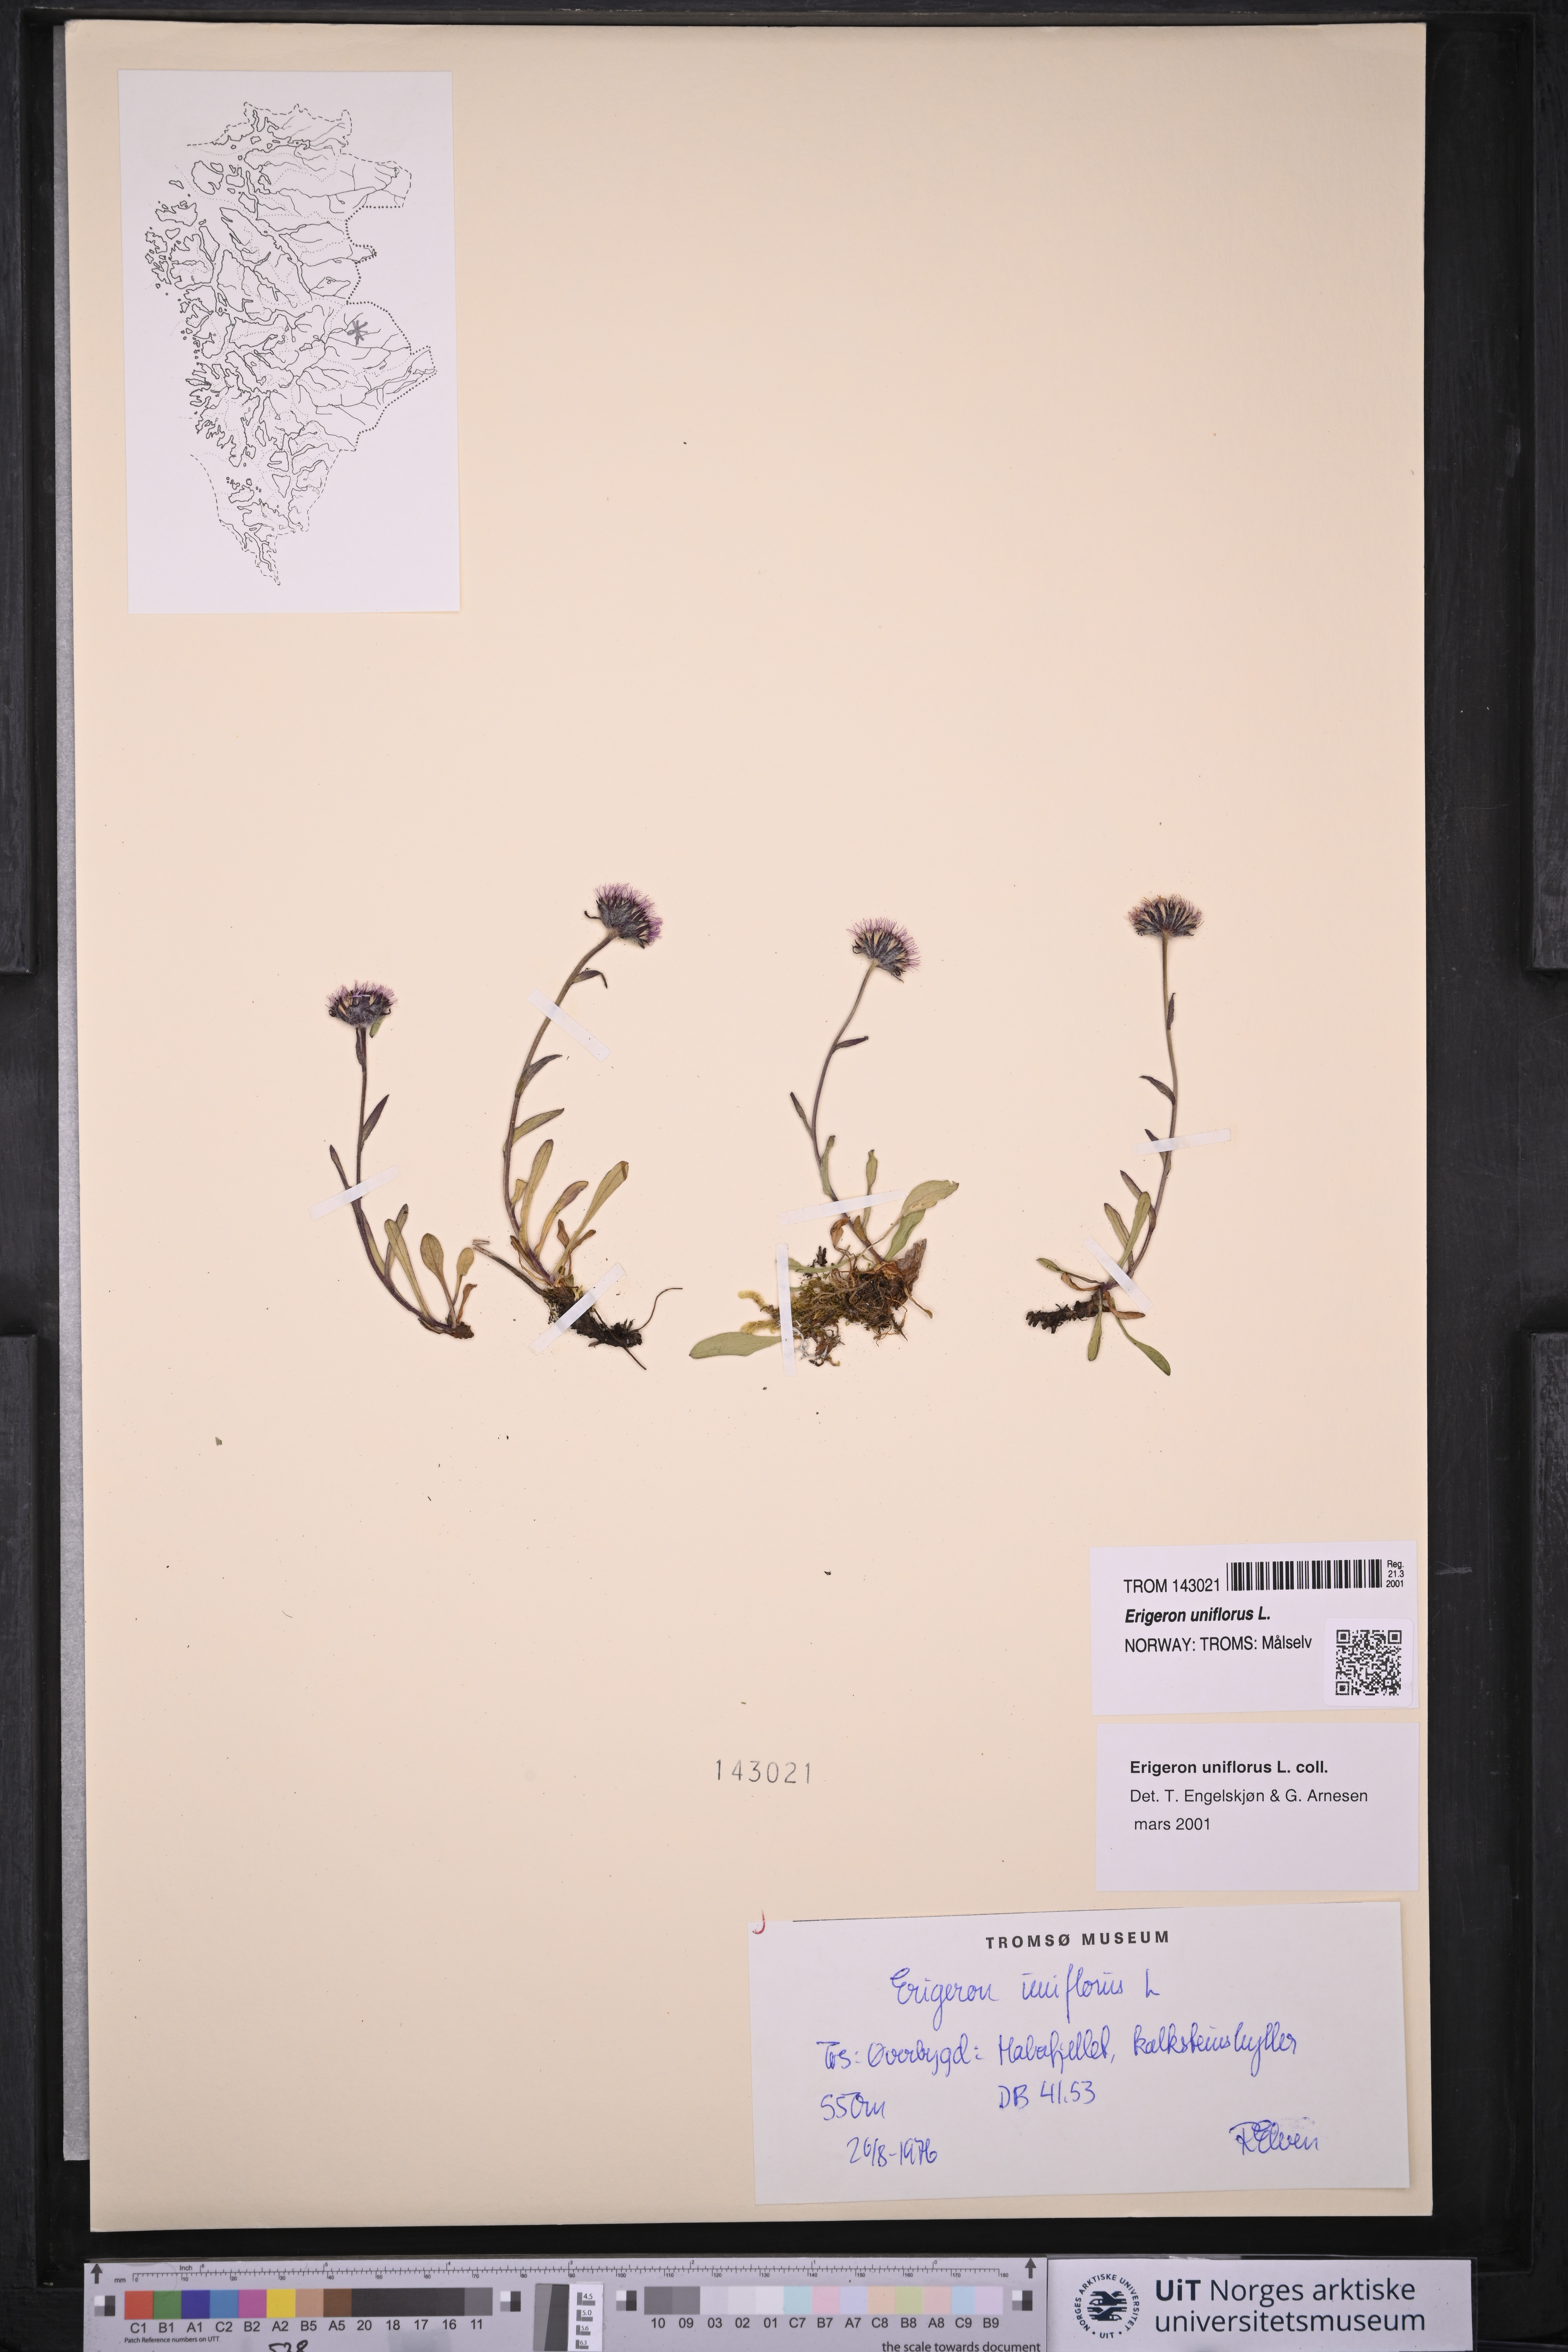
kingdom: Plantae
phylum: Tracheophyta
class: Magnoliopsida
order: Asterales
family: Asteraceae
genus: Erigeron
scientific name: Erigeron uniflorus
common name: Northern daisy
